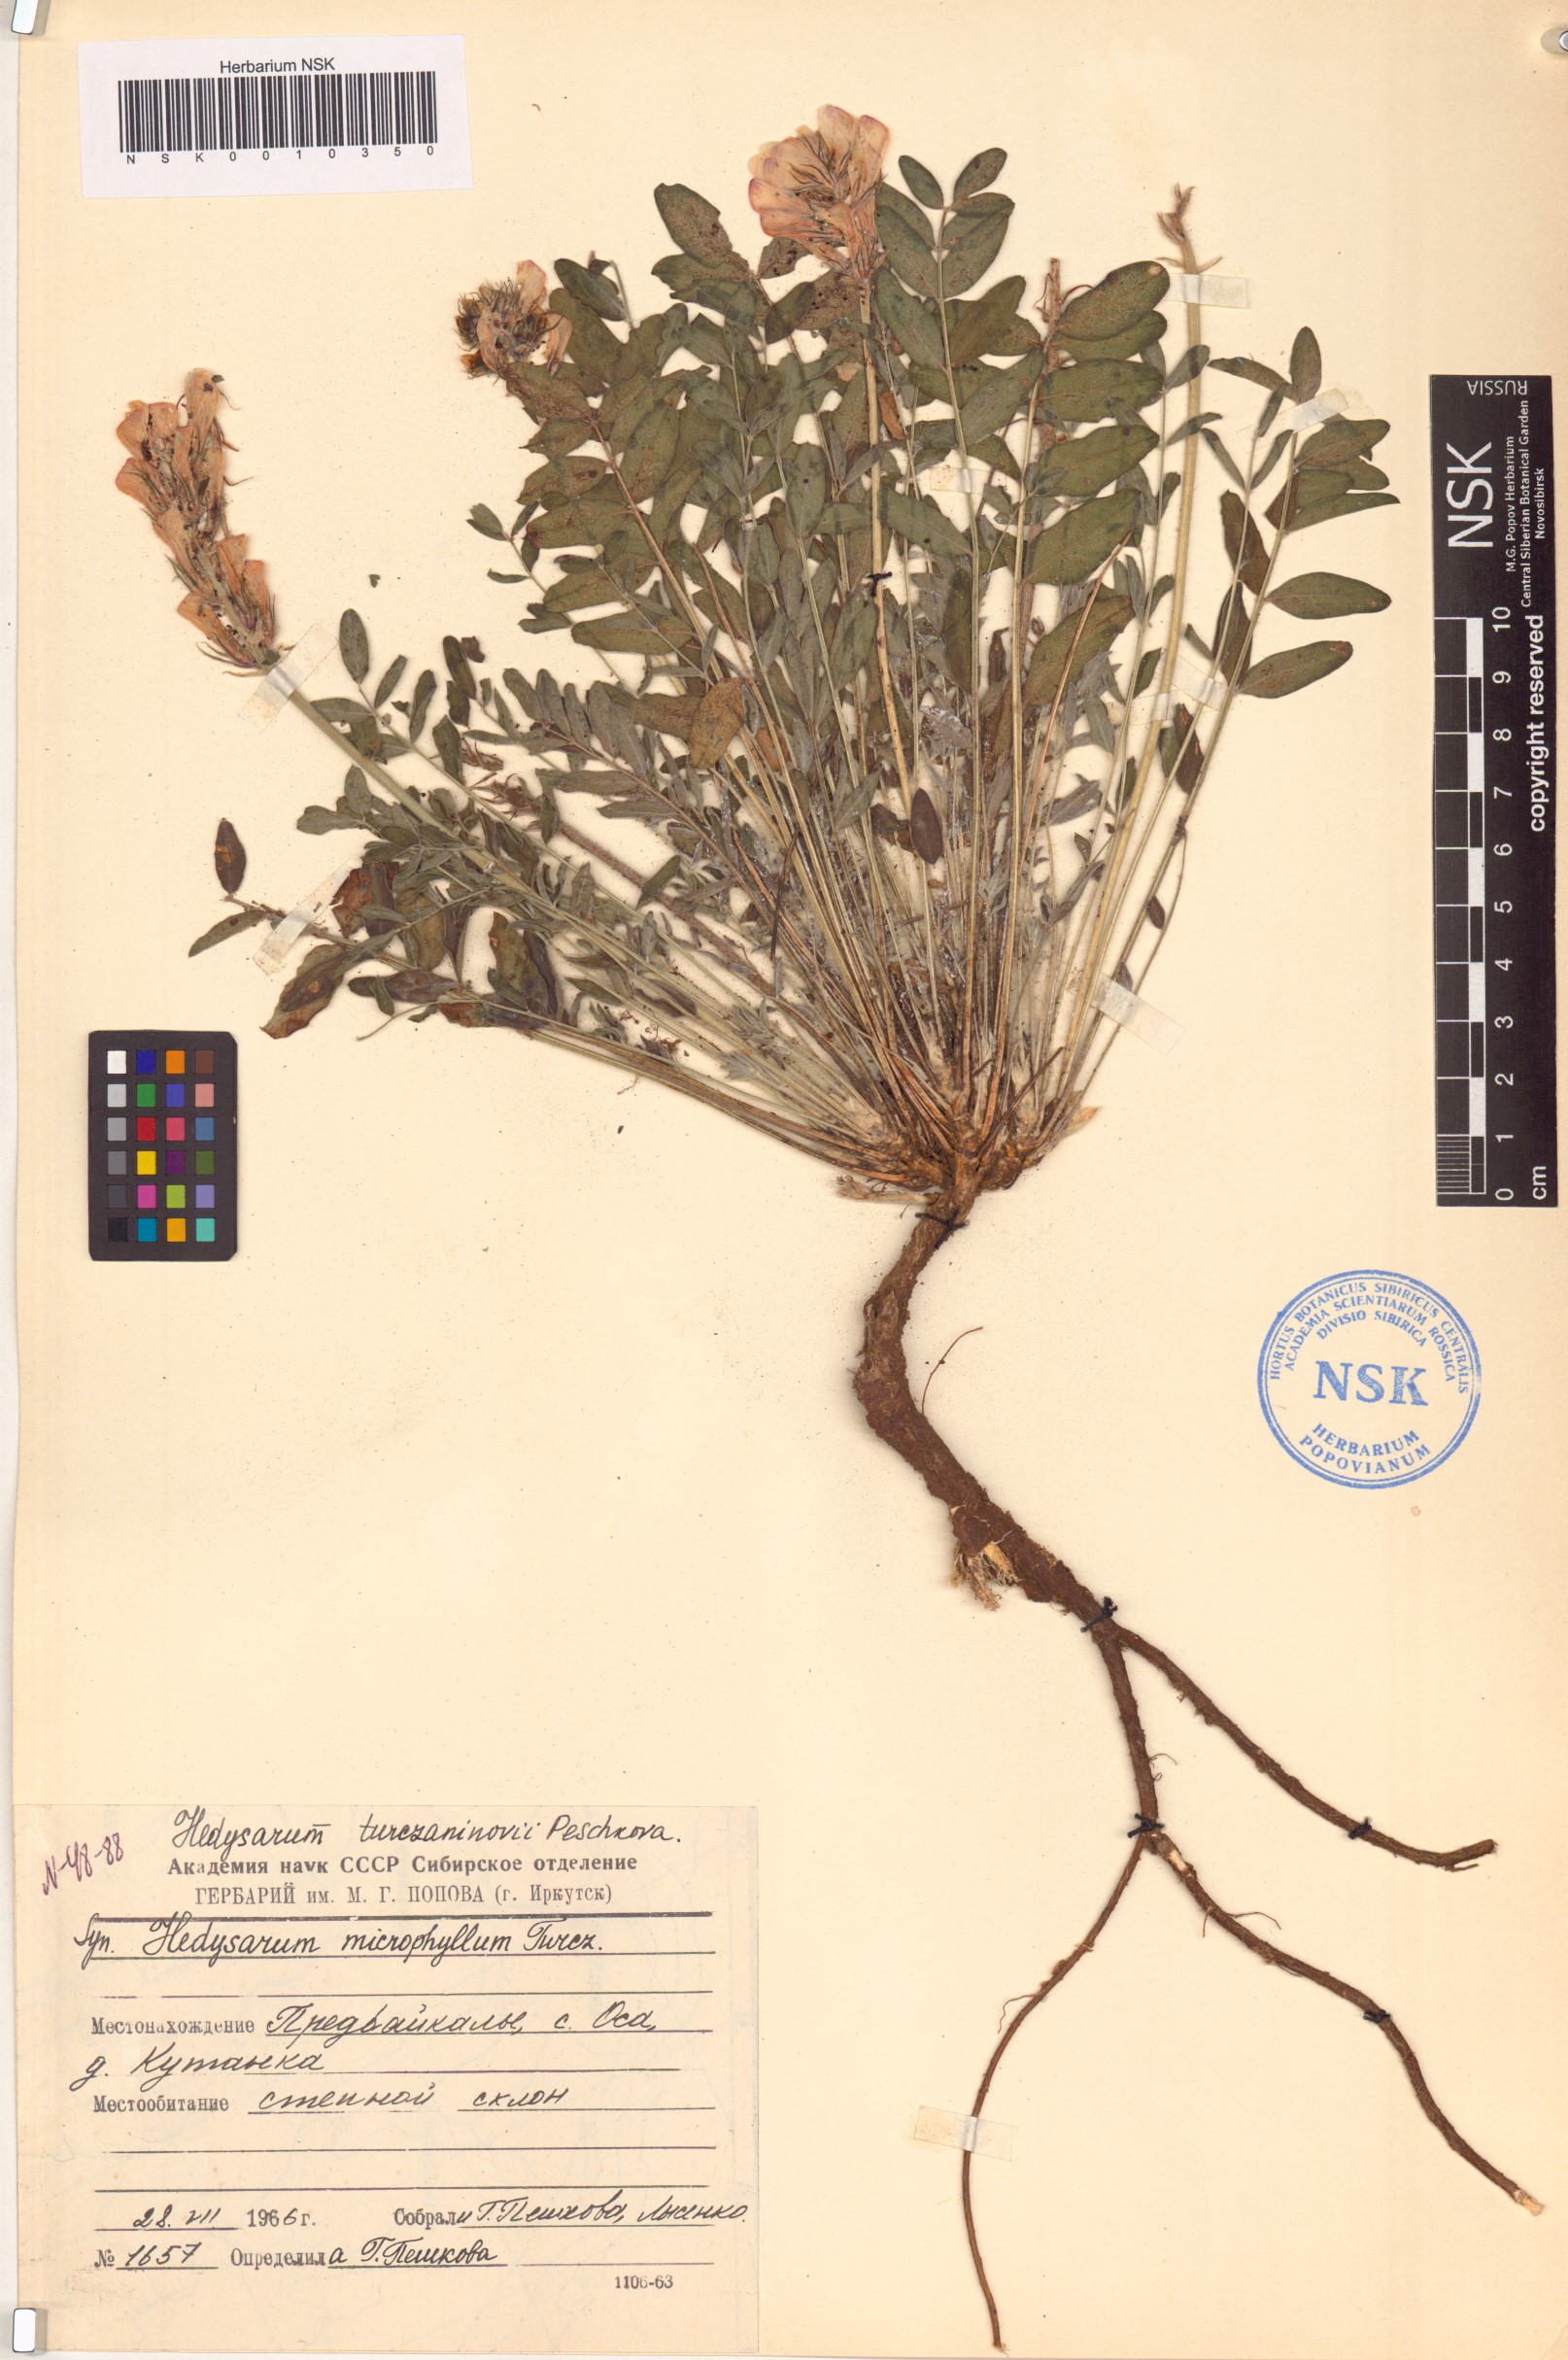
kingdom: Plantae
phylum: Tracheophyta
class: Magnoliopsida
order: Fabales
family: Fabaceae
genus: Hedysarum
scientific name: Hedysarum turczaninovii
